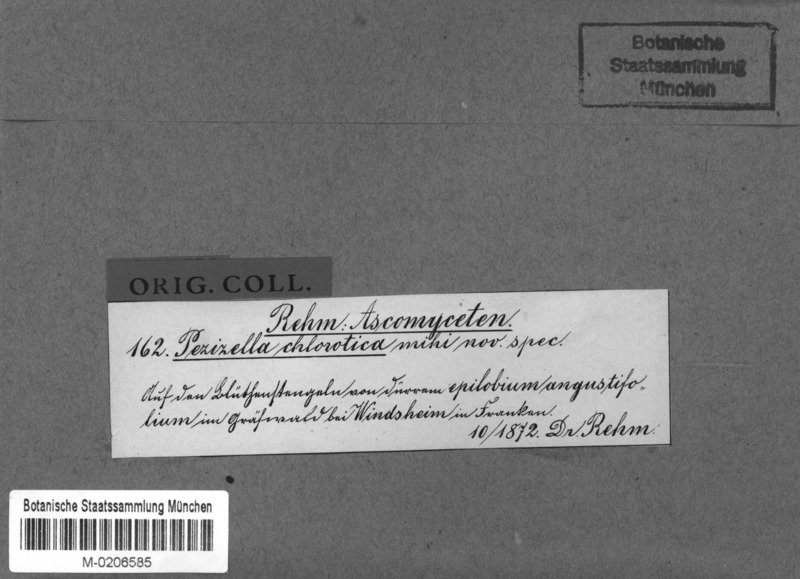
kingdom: Fungi
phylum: Ascomycota
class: Leotiomycetes
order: Helotiales
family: Pezizellaceae
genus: Pezizella
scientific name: Pezizella punctoidea
